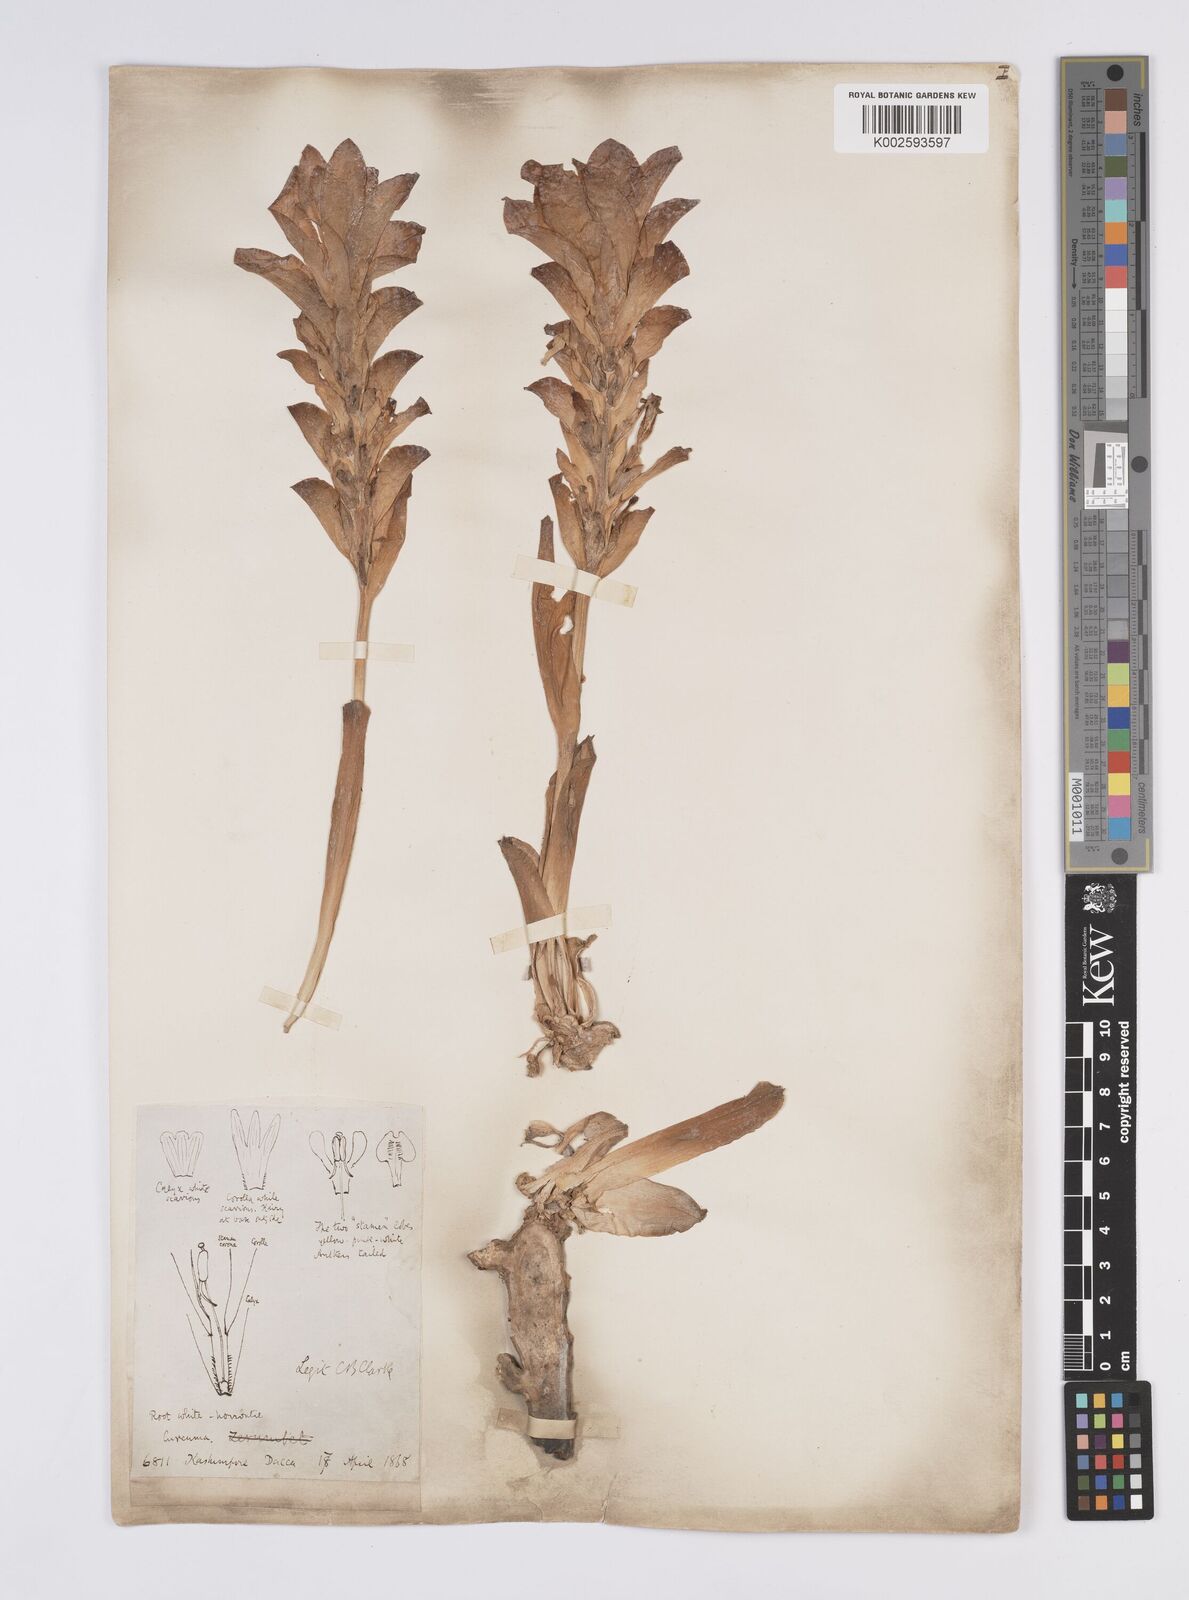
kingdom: Plantae
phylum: Tracheophyta
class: Liliopsida
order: Zingiberales
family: Zingiberaceae
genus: Curcuma
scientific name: Curcuma aromatica
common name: Wild turmeric
